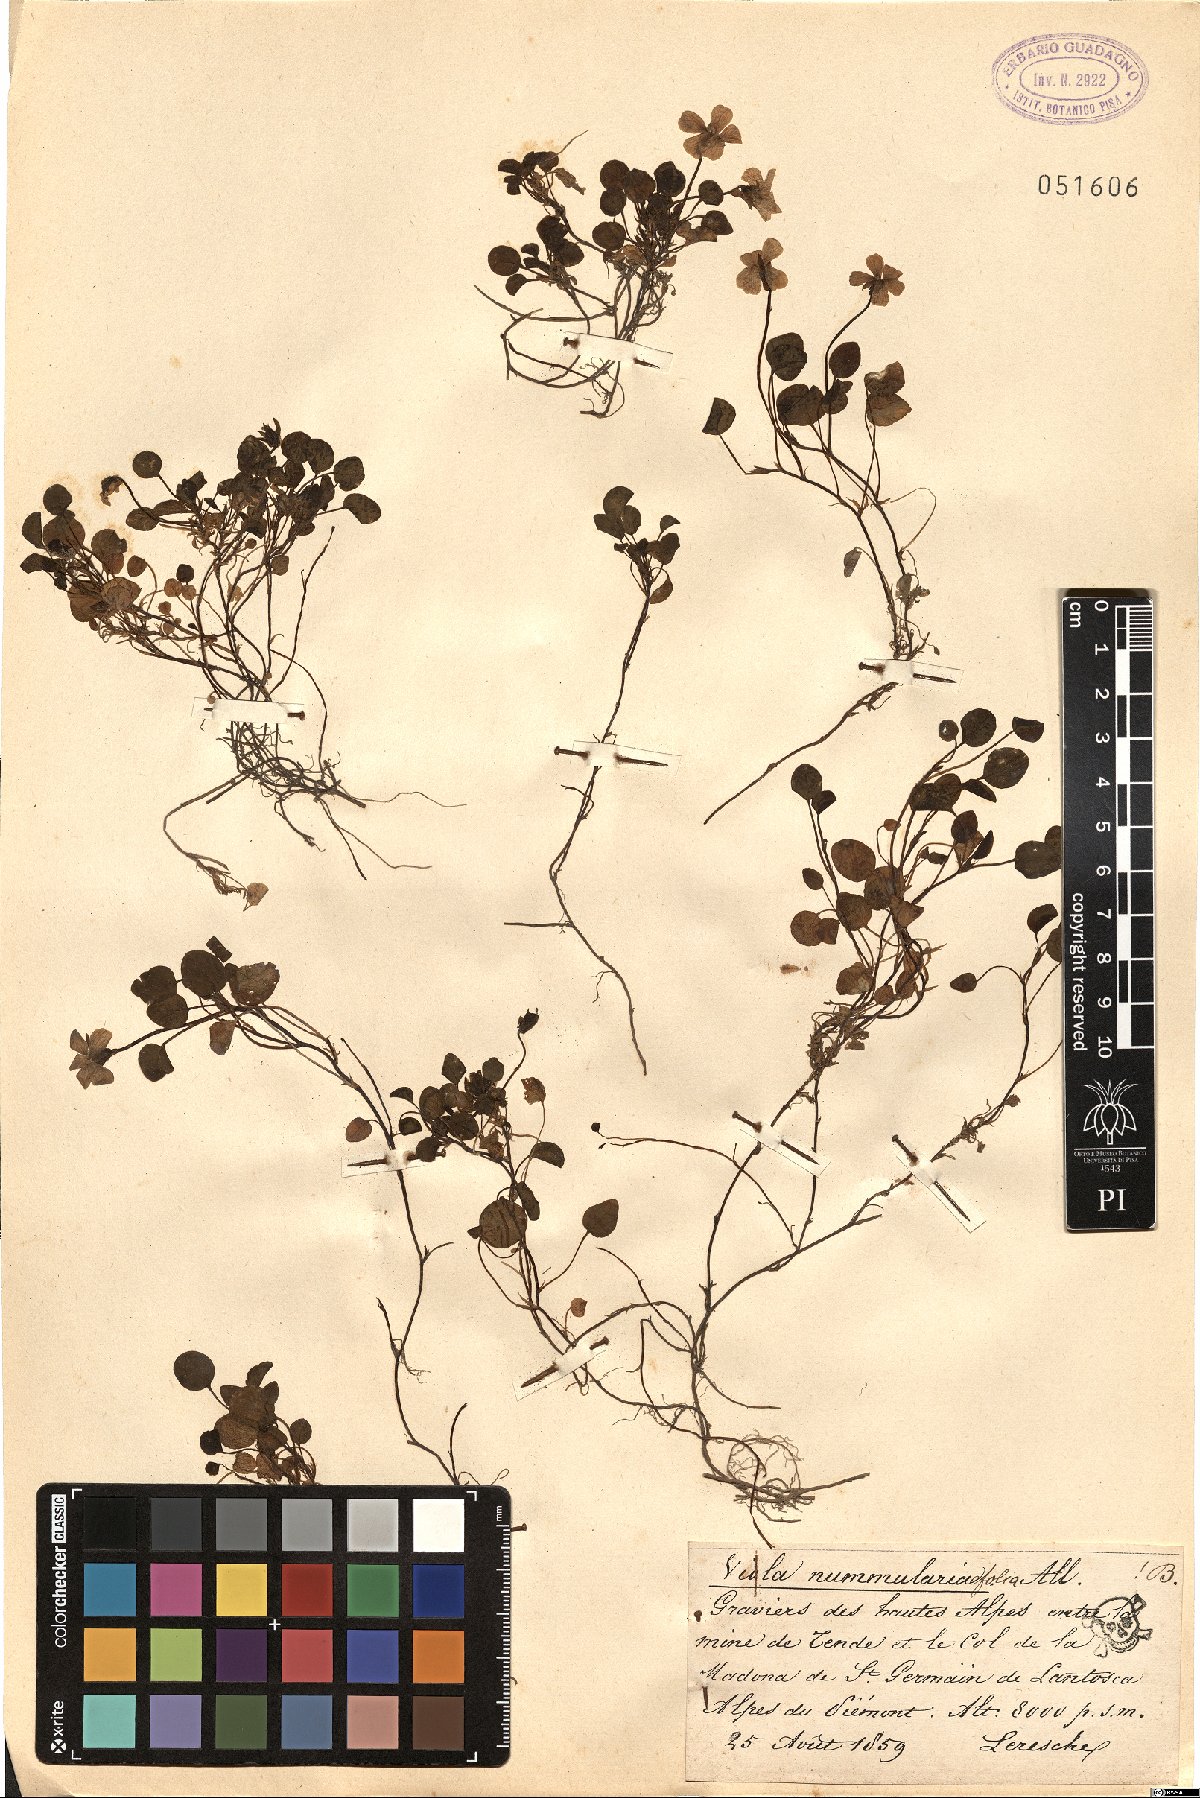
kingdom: Plantae
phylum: Tracheophyta
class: Magnoliopsida
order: Malpighiales
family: Violaceae
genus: Viola
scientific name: Viola nummulariifolia
